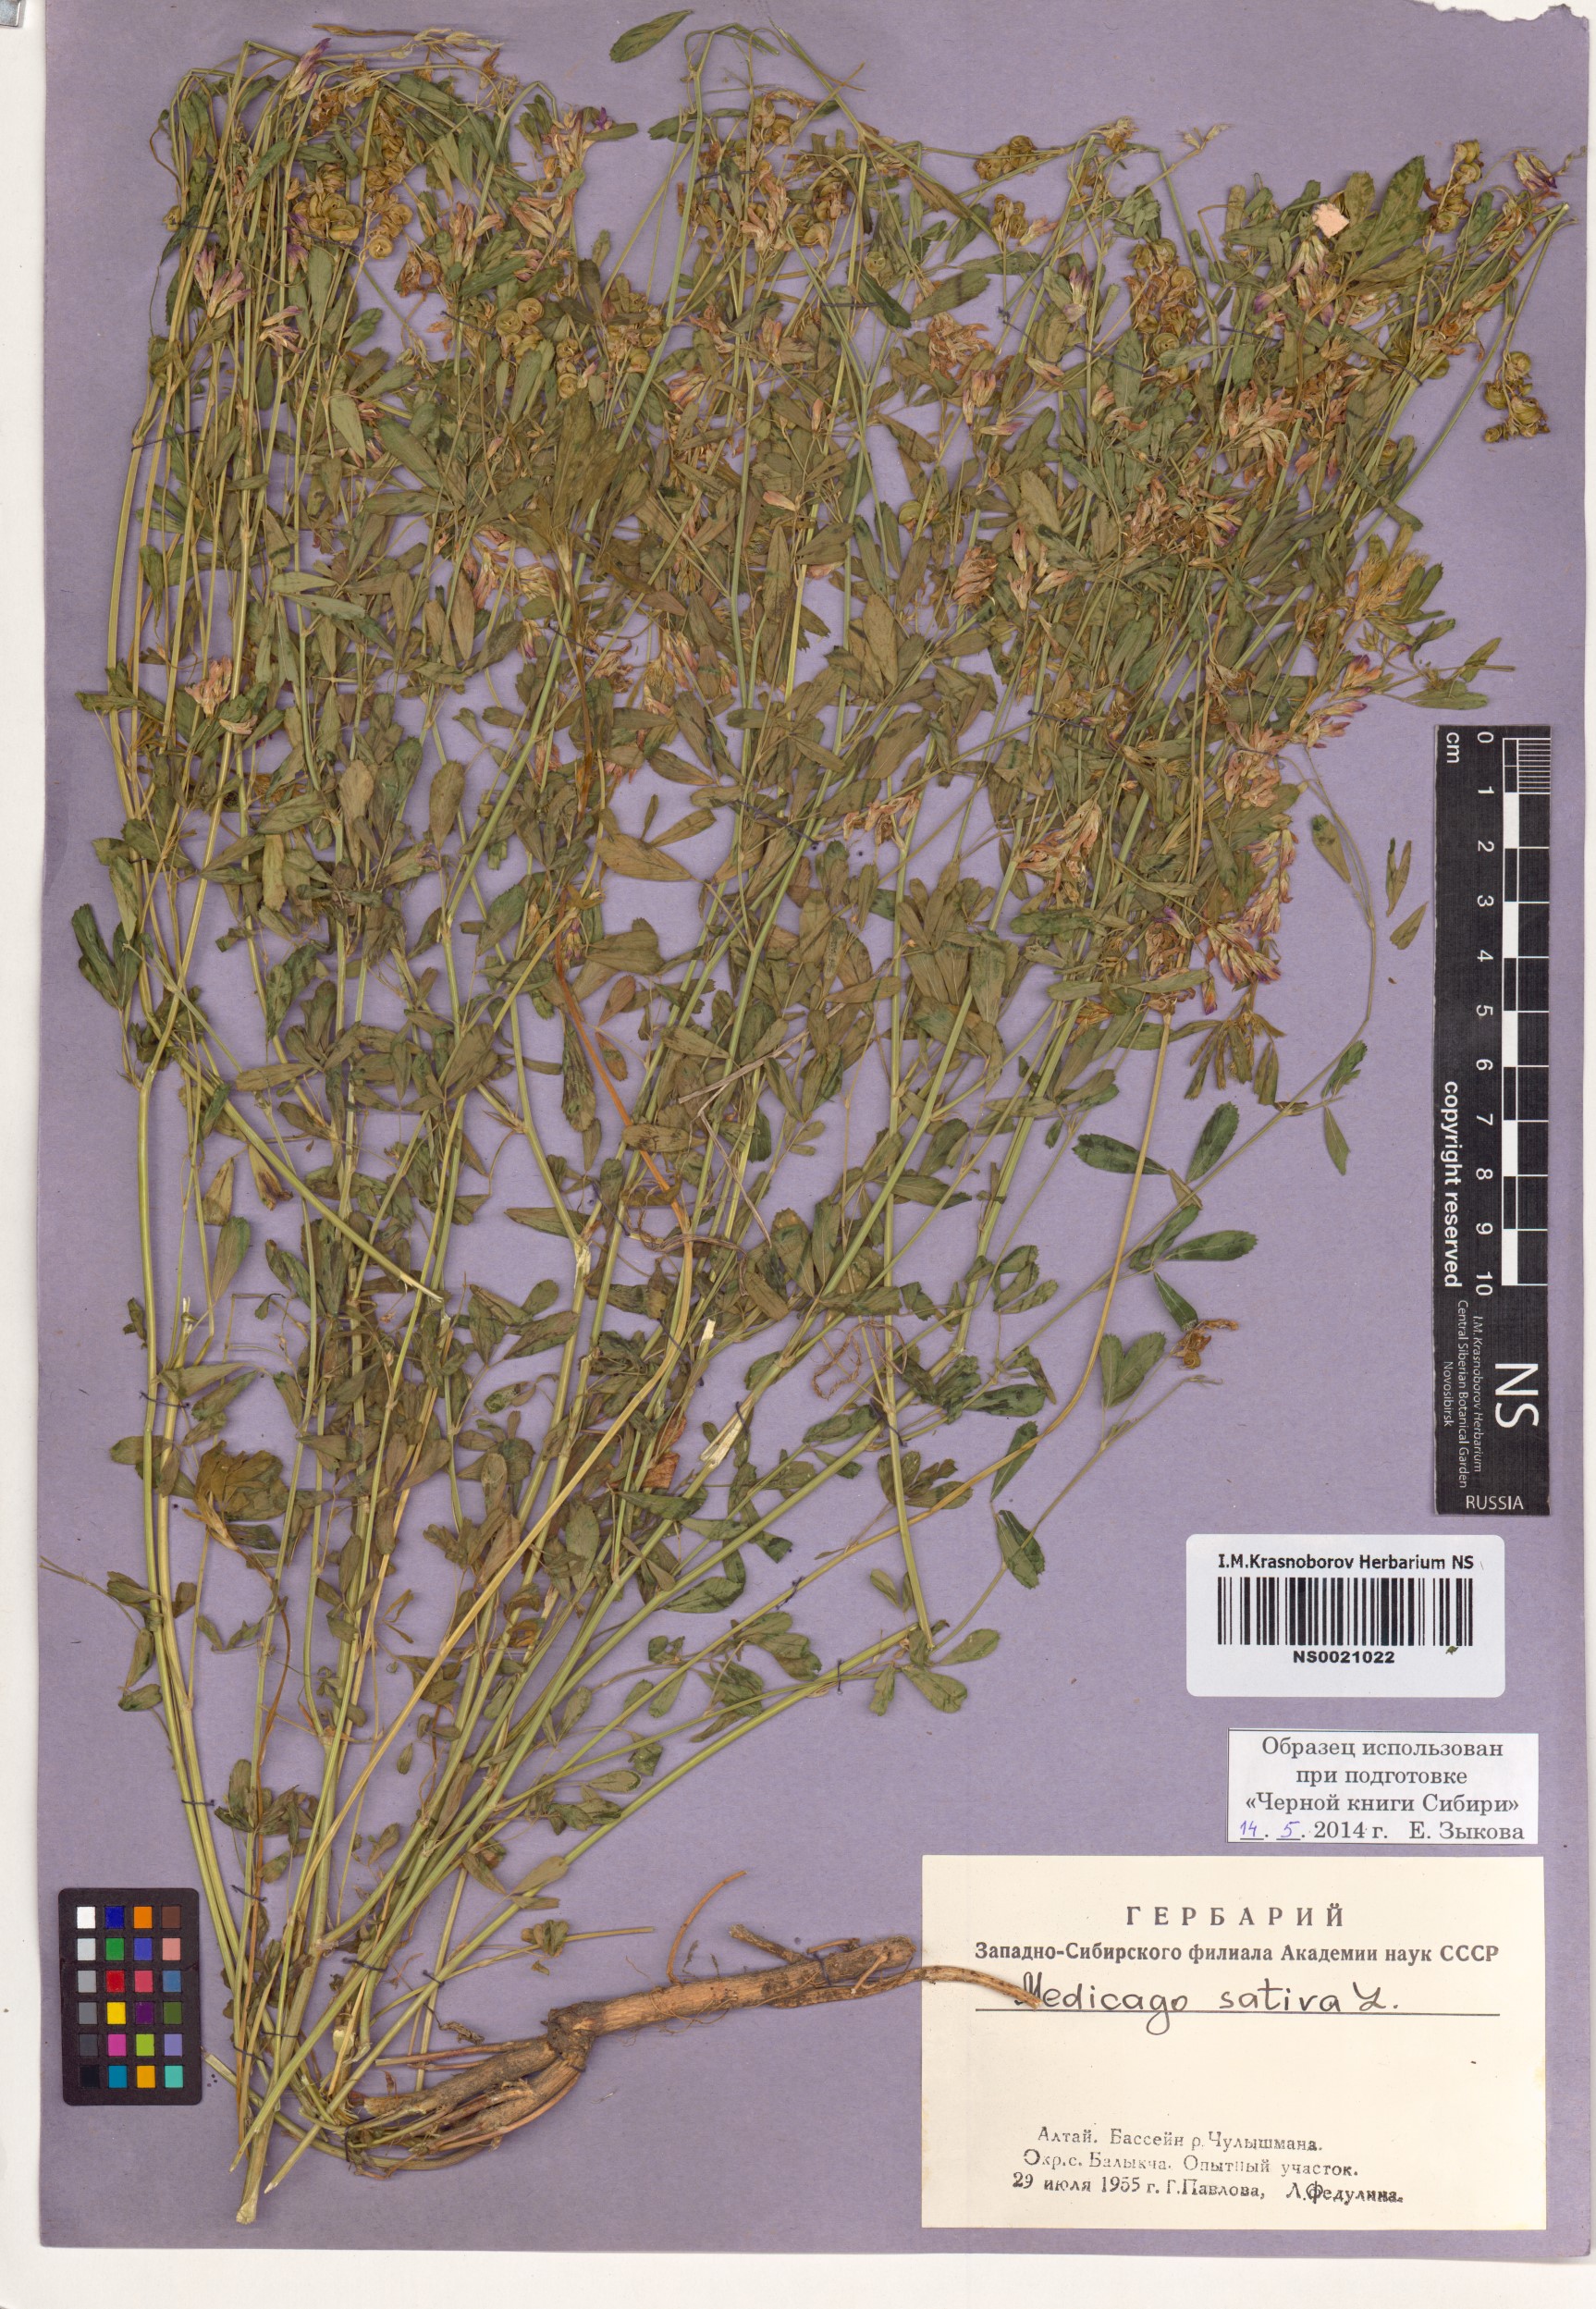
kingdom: Plantae
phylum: Tracheophyta
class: Magnoliopsida
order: Fabales
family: Fabaceae
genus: Medicago
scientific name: Medicago sativa
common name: Alfalfa
